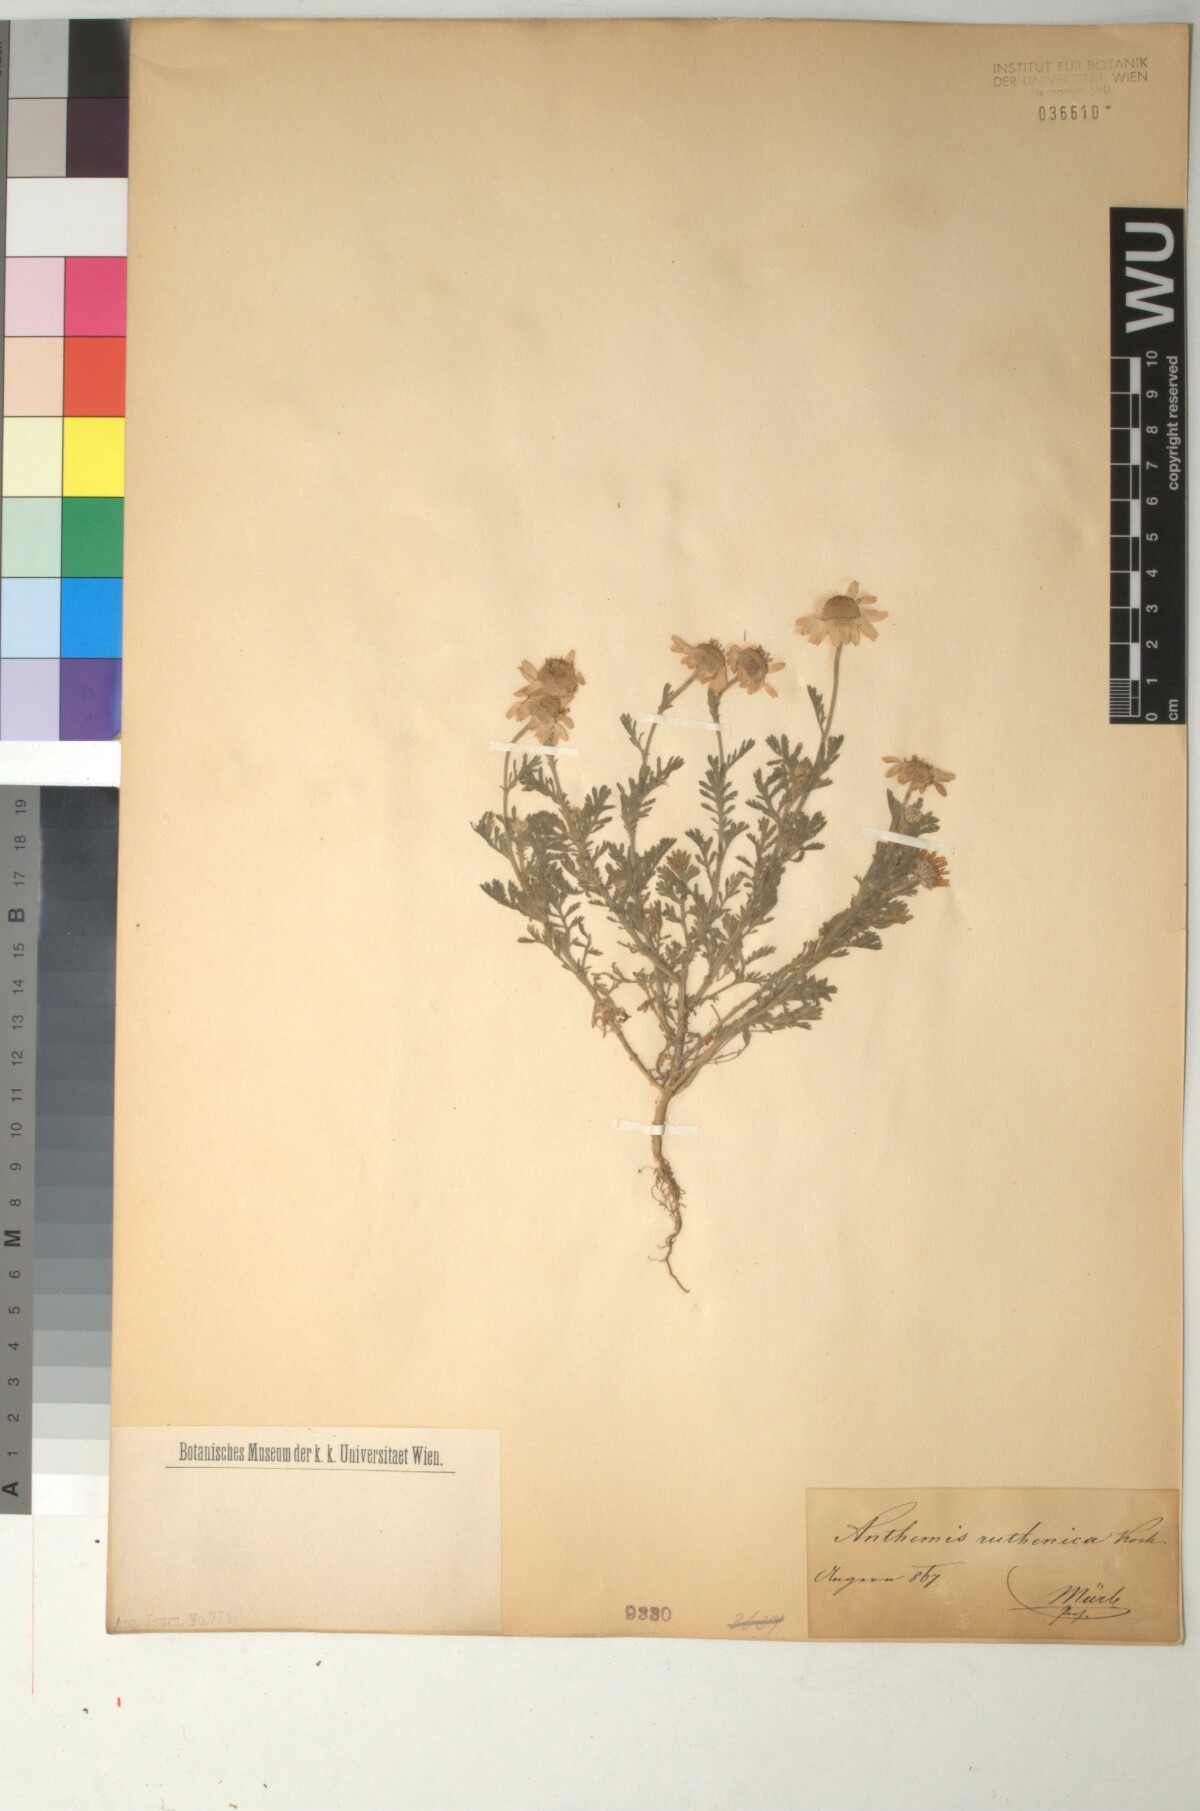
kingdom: Plantae
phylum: Tracheophyta
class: Magnoliopsida
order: Asterales
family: Asteraceae
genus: Anthemis
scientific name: Anthemis ruthenica
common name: Eastern chamomile
